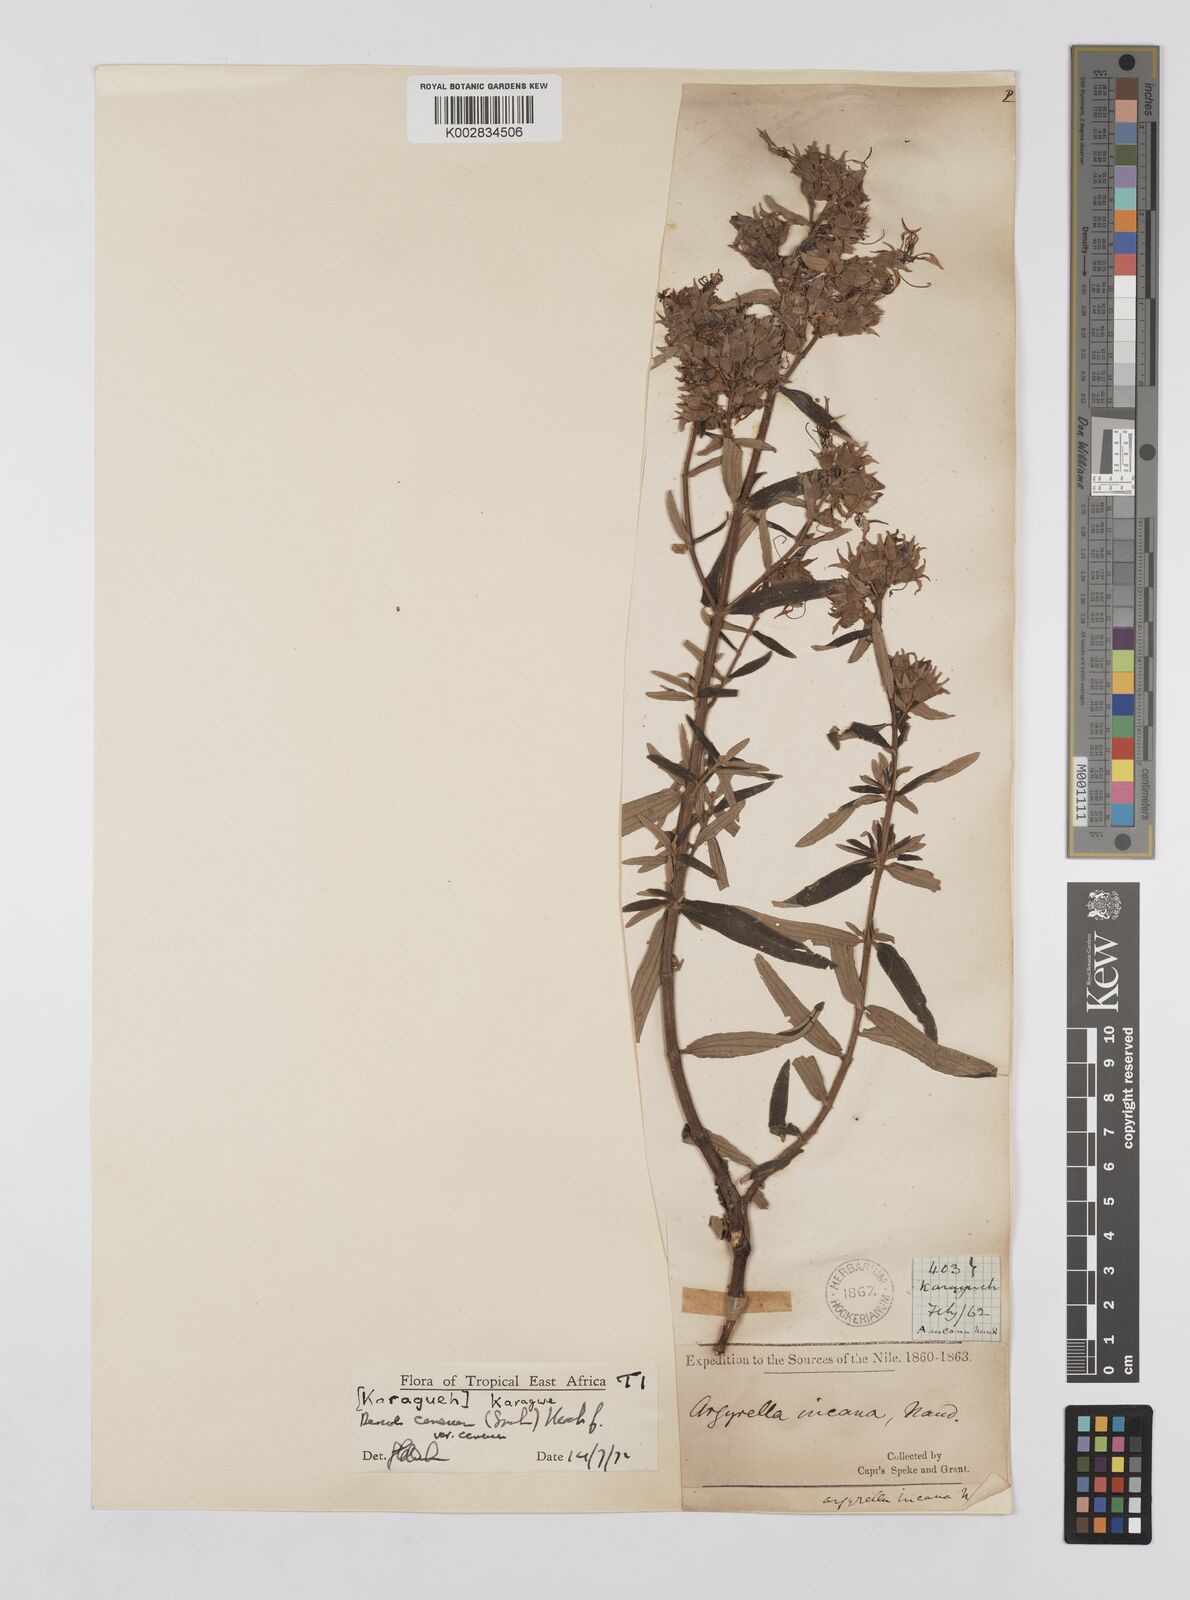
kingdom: Plantae
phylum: Tracheophyta
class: Magnoliopsida
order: Myrtales
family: Melastomataceae
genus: Argyrella
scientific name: Argyrella canescens
